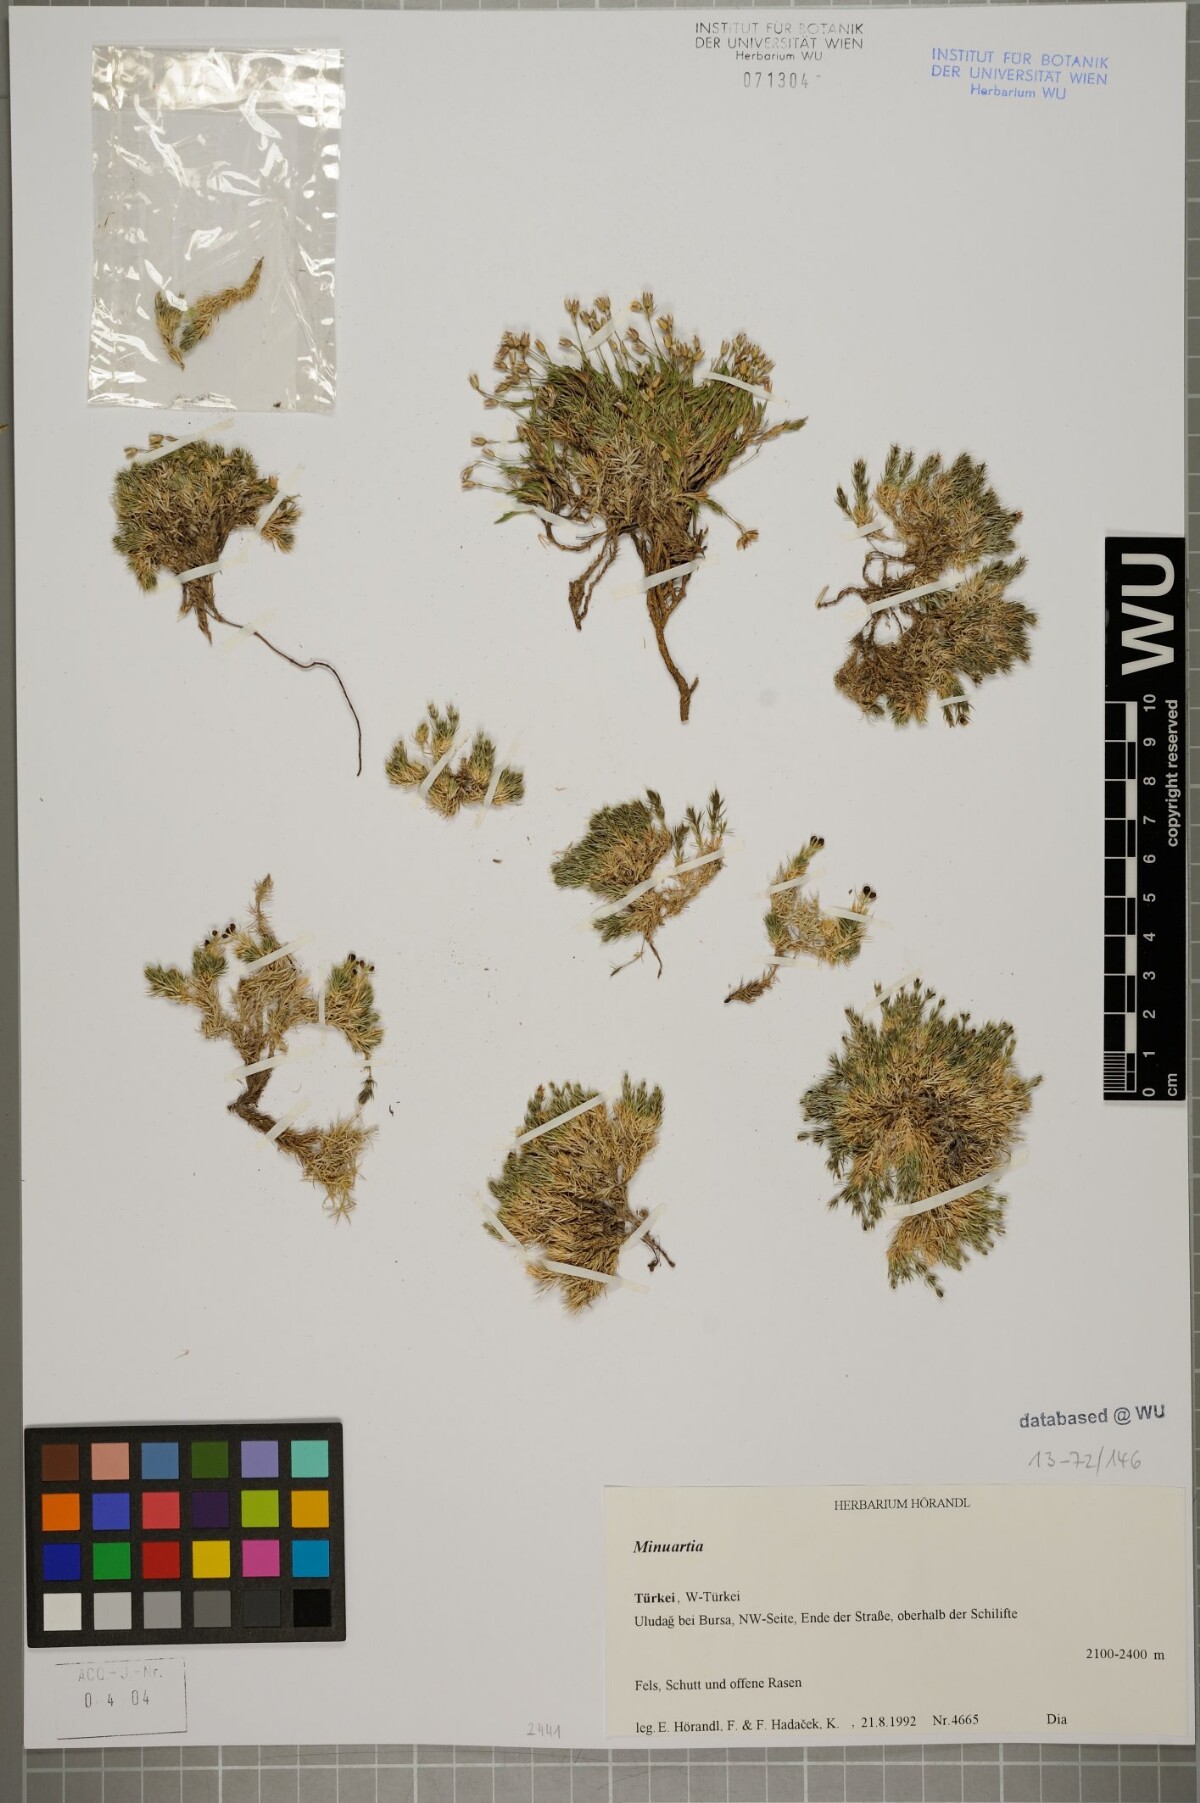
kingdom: Plantae
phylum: Tracheophyta
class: Magnoliopsida
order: Caryophyllales
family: Caryophyllaceae
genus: Minuartia
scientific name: Minuartia erythrosepala
